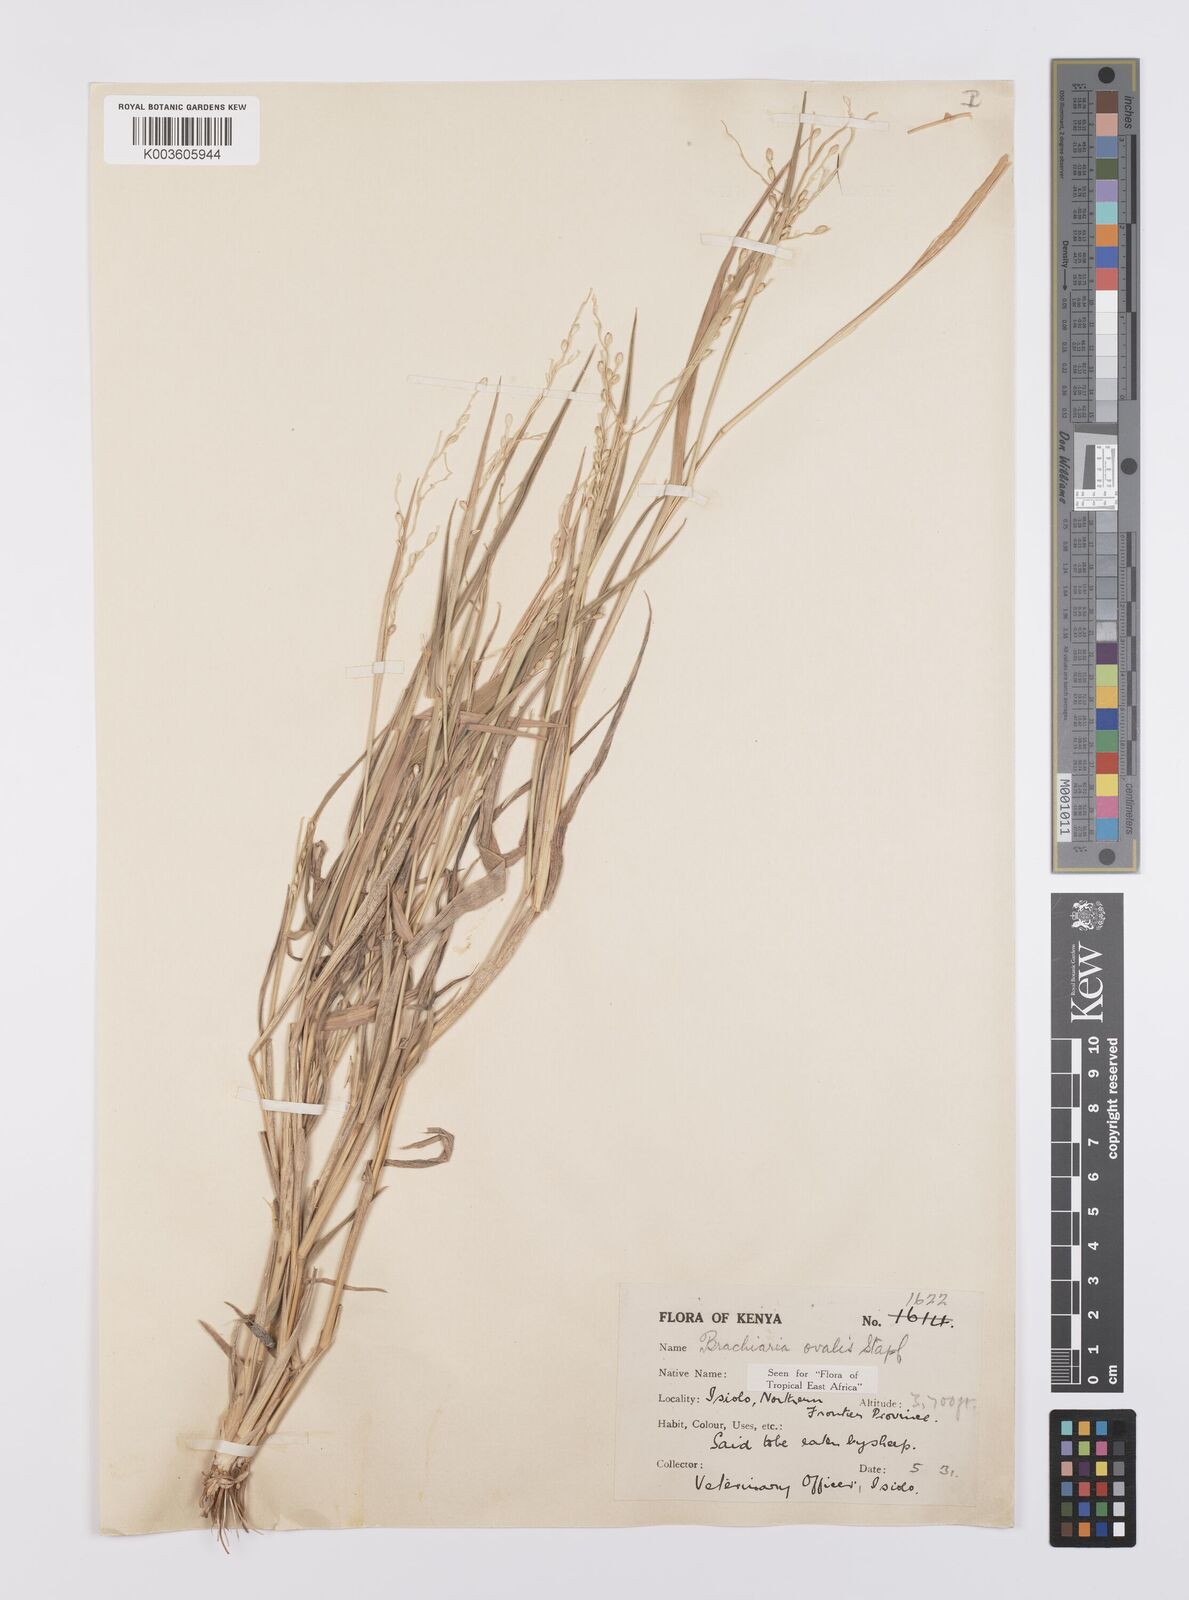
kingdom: Plantae
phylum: Tracheophyta
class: Liliopsida
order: Poales
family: Poaceae
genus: Urochloa
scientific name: Urochloa ovalis
